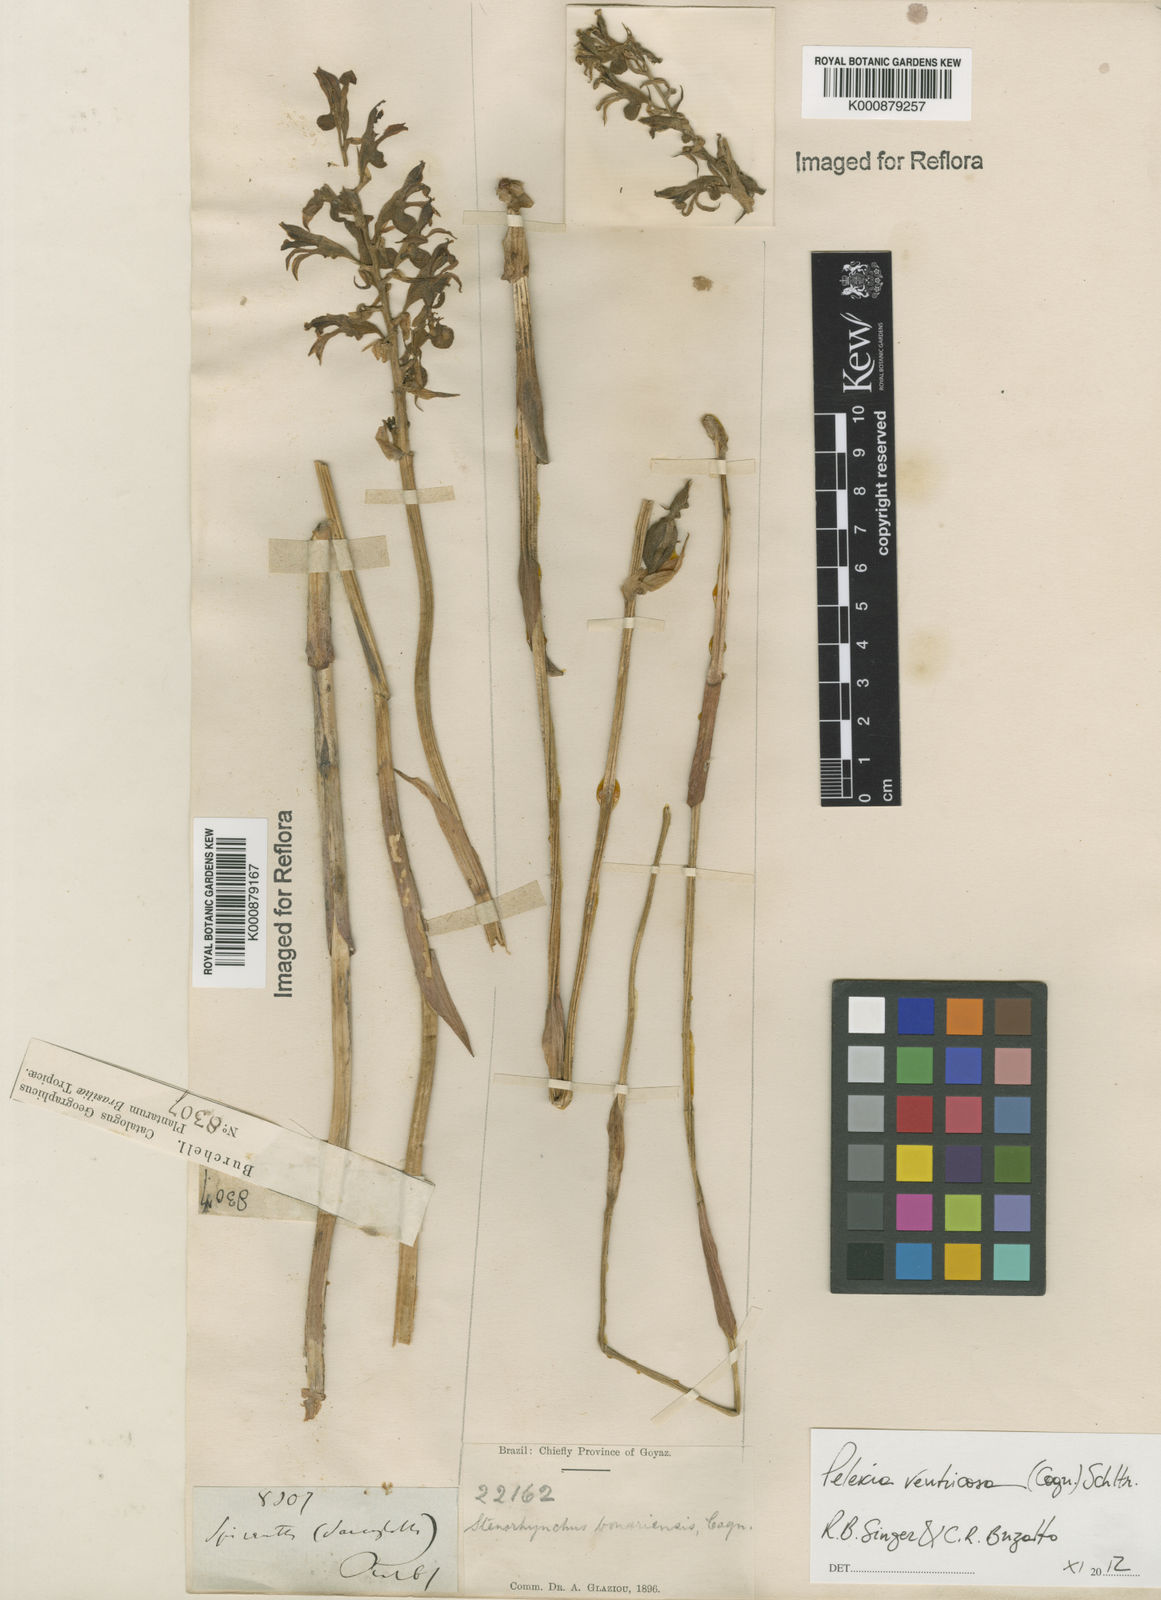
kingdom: Plantae
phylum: Tracheophyta
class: Liliopsida
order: Asparagales
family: Orchidaceae
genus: Pelexia
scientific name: Pelexia ventricosa
